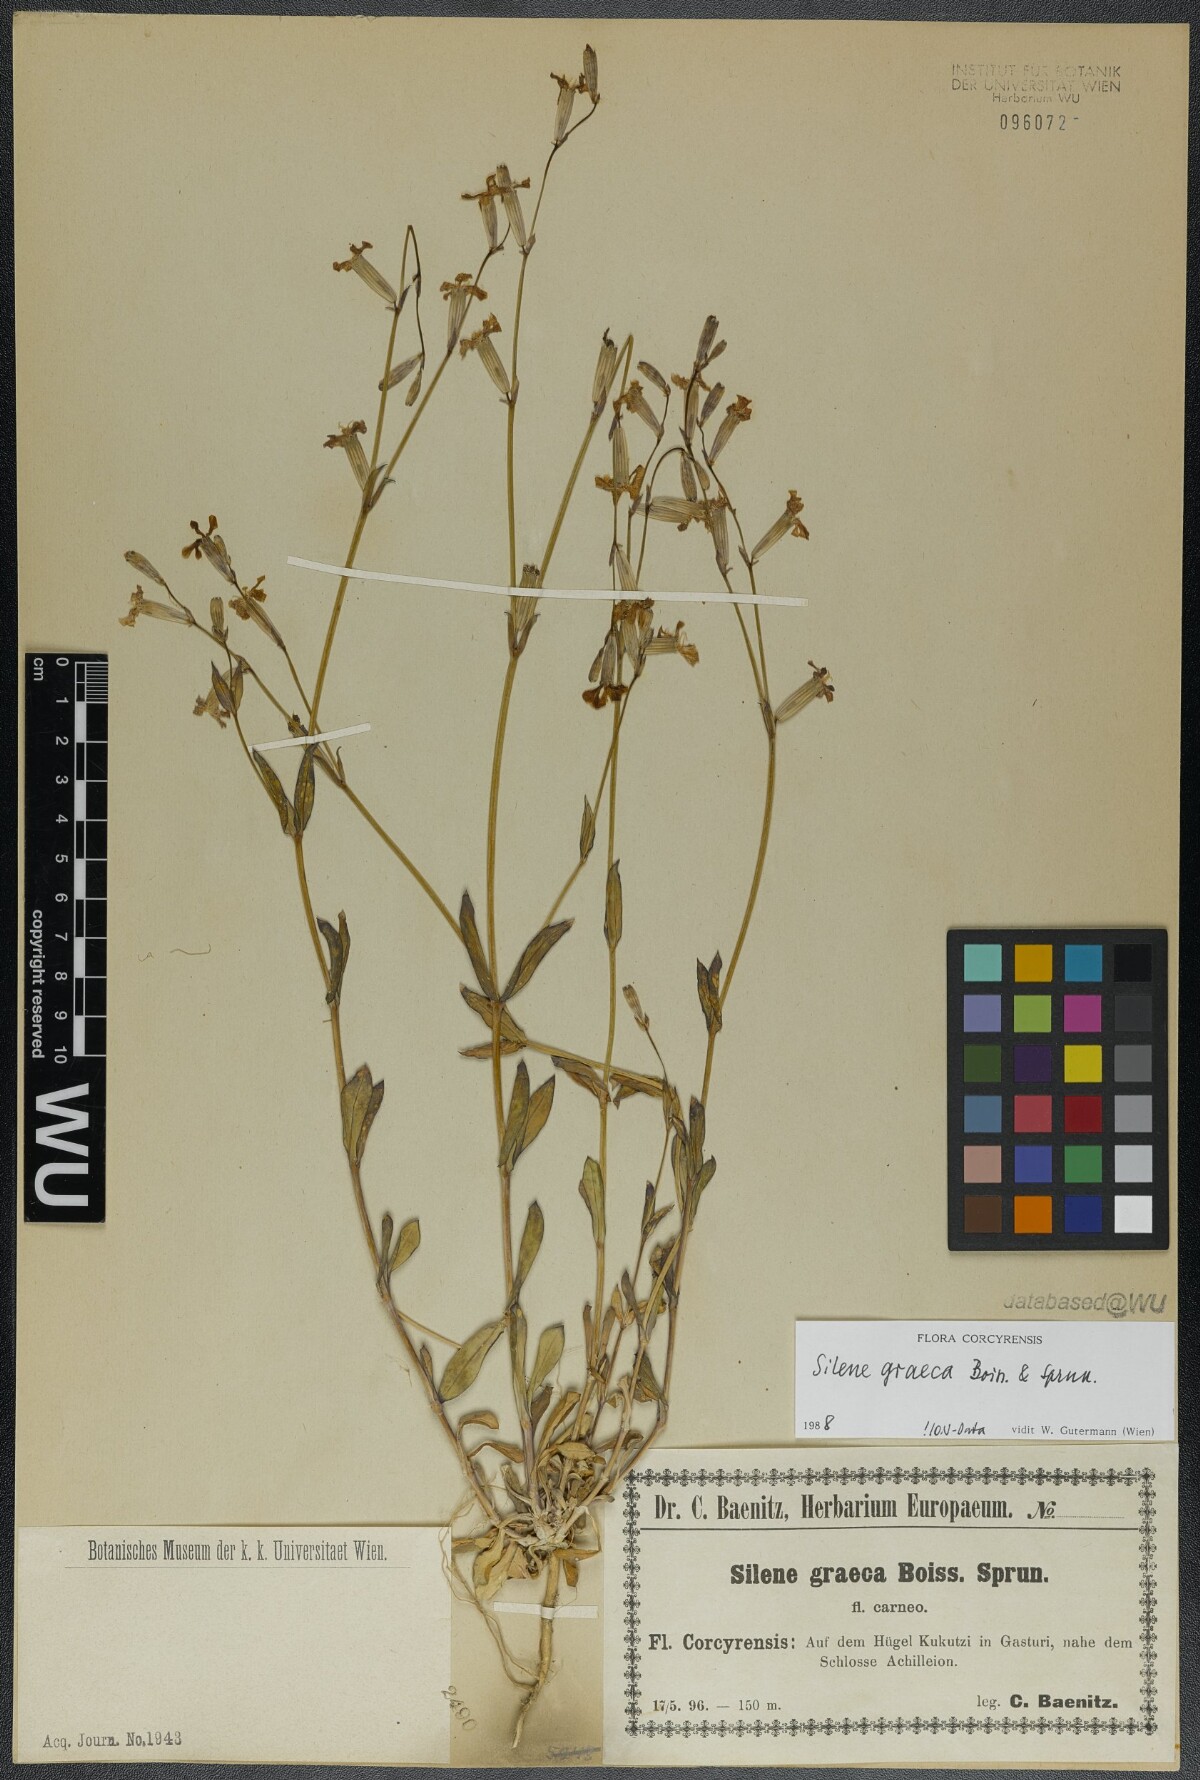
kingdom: Plantae
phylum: Tracheophyta
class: Magnoliopsida
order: Caryophyllales
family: Caryophyllaceae
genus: Silene
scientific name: Silene graeca
